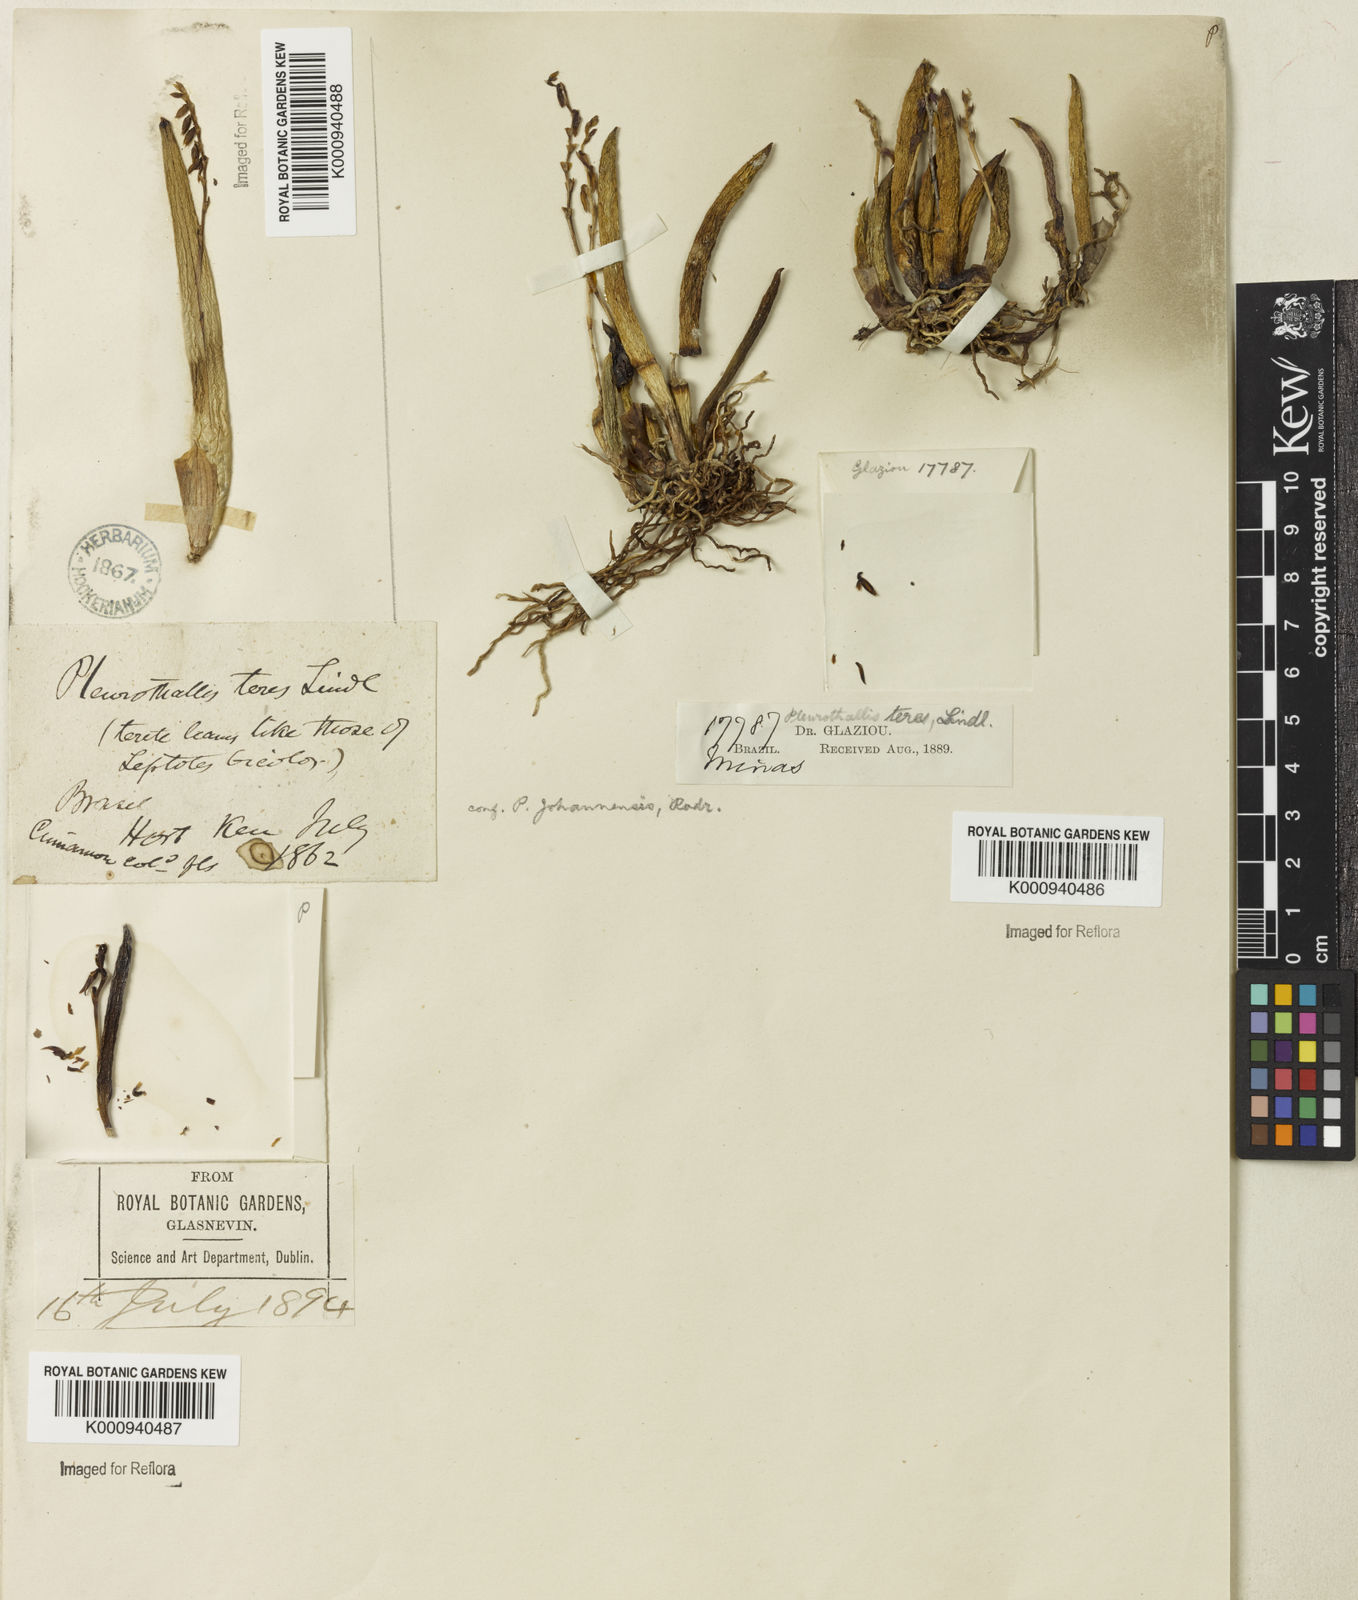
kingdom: Plantae
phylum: Tracheophyta
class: Liliopsida
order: Asparagales
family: Orchidaceae
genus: Acianthera
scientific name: Acianthera teres
